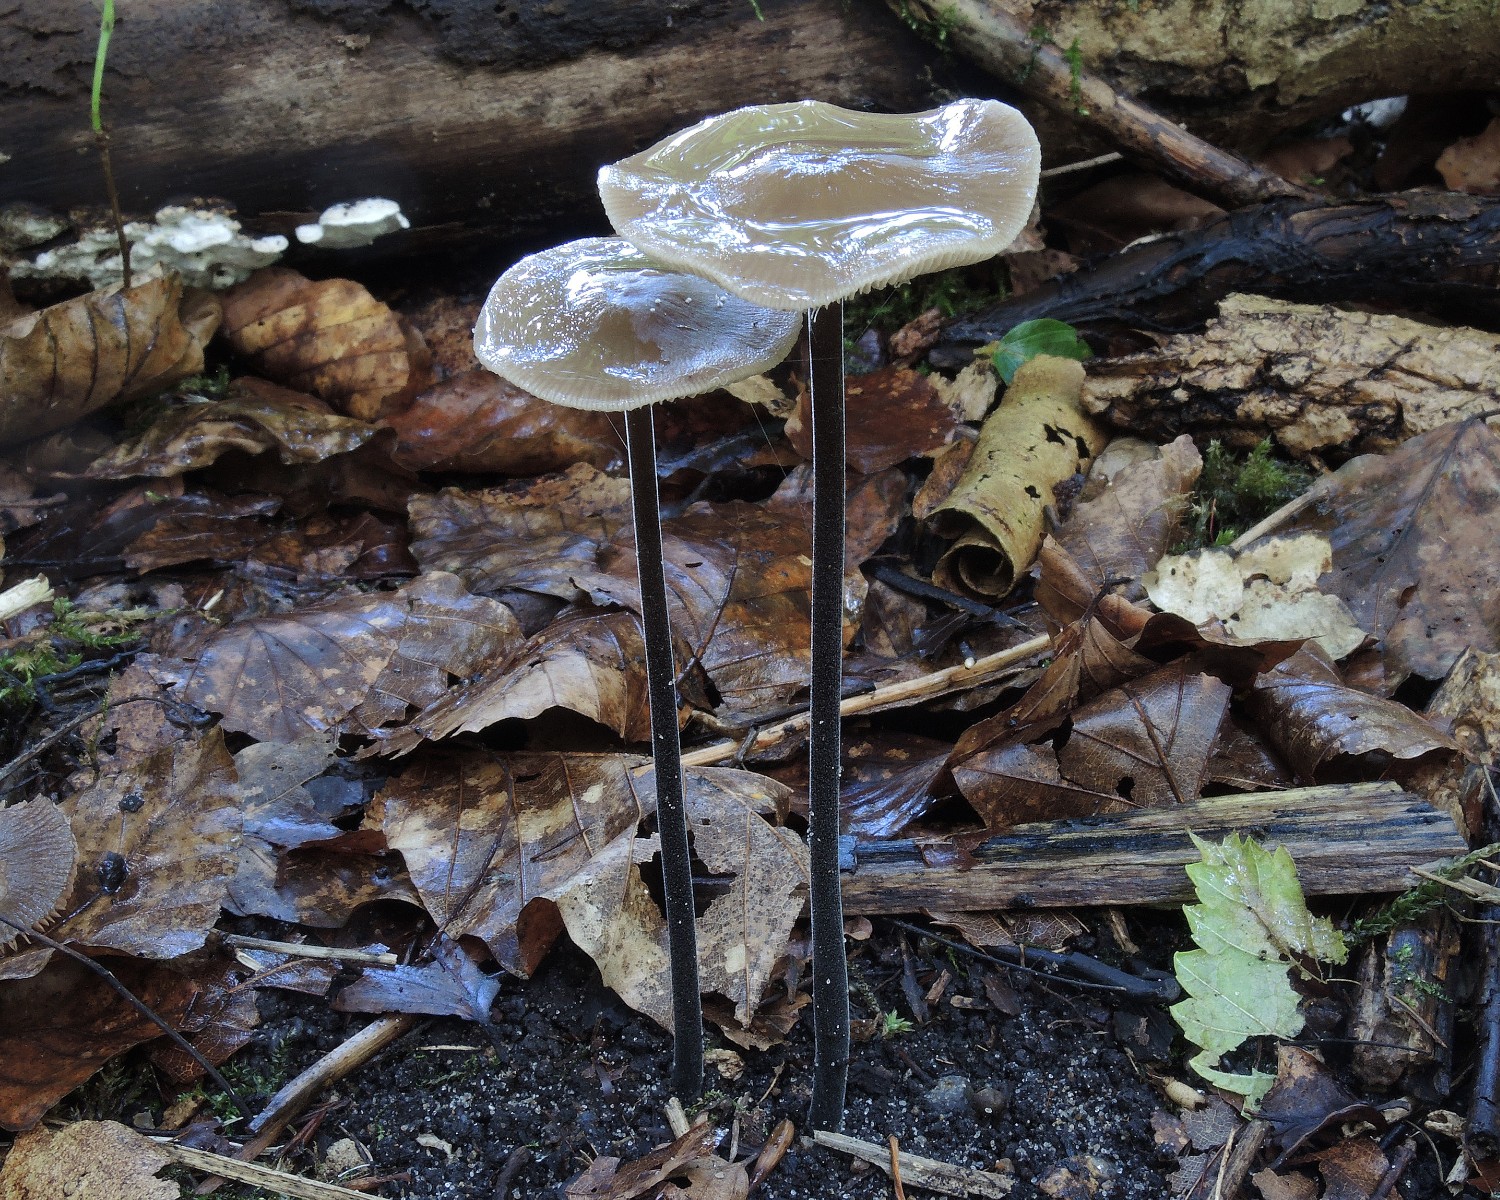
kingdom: Fungi
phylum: Basidiomycota
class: Agaricomycetes
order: Agaricales
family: Omphalotaceae
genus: Mycetinis
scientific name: Mycetinis alliaceus
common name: stor løghat
